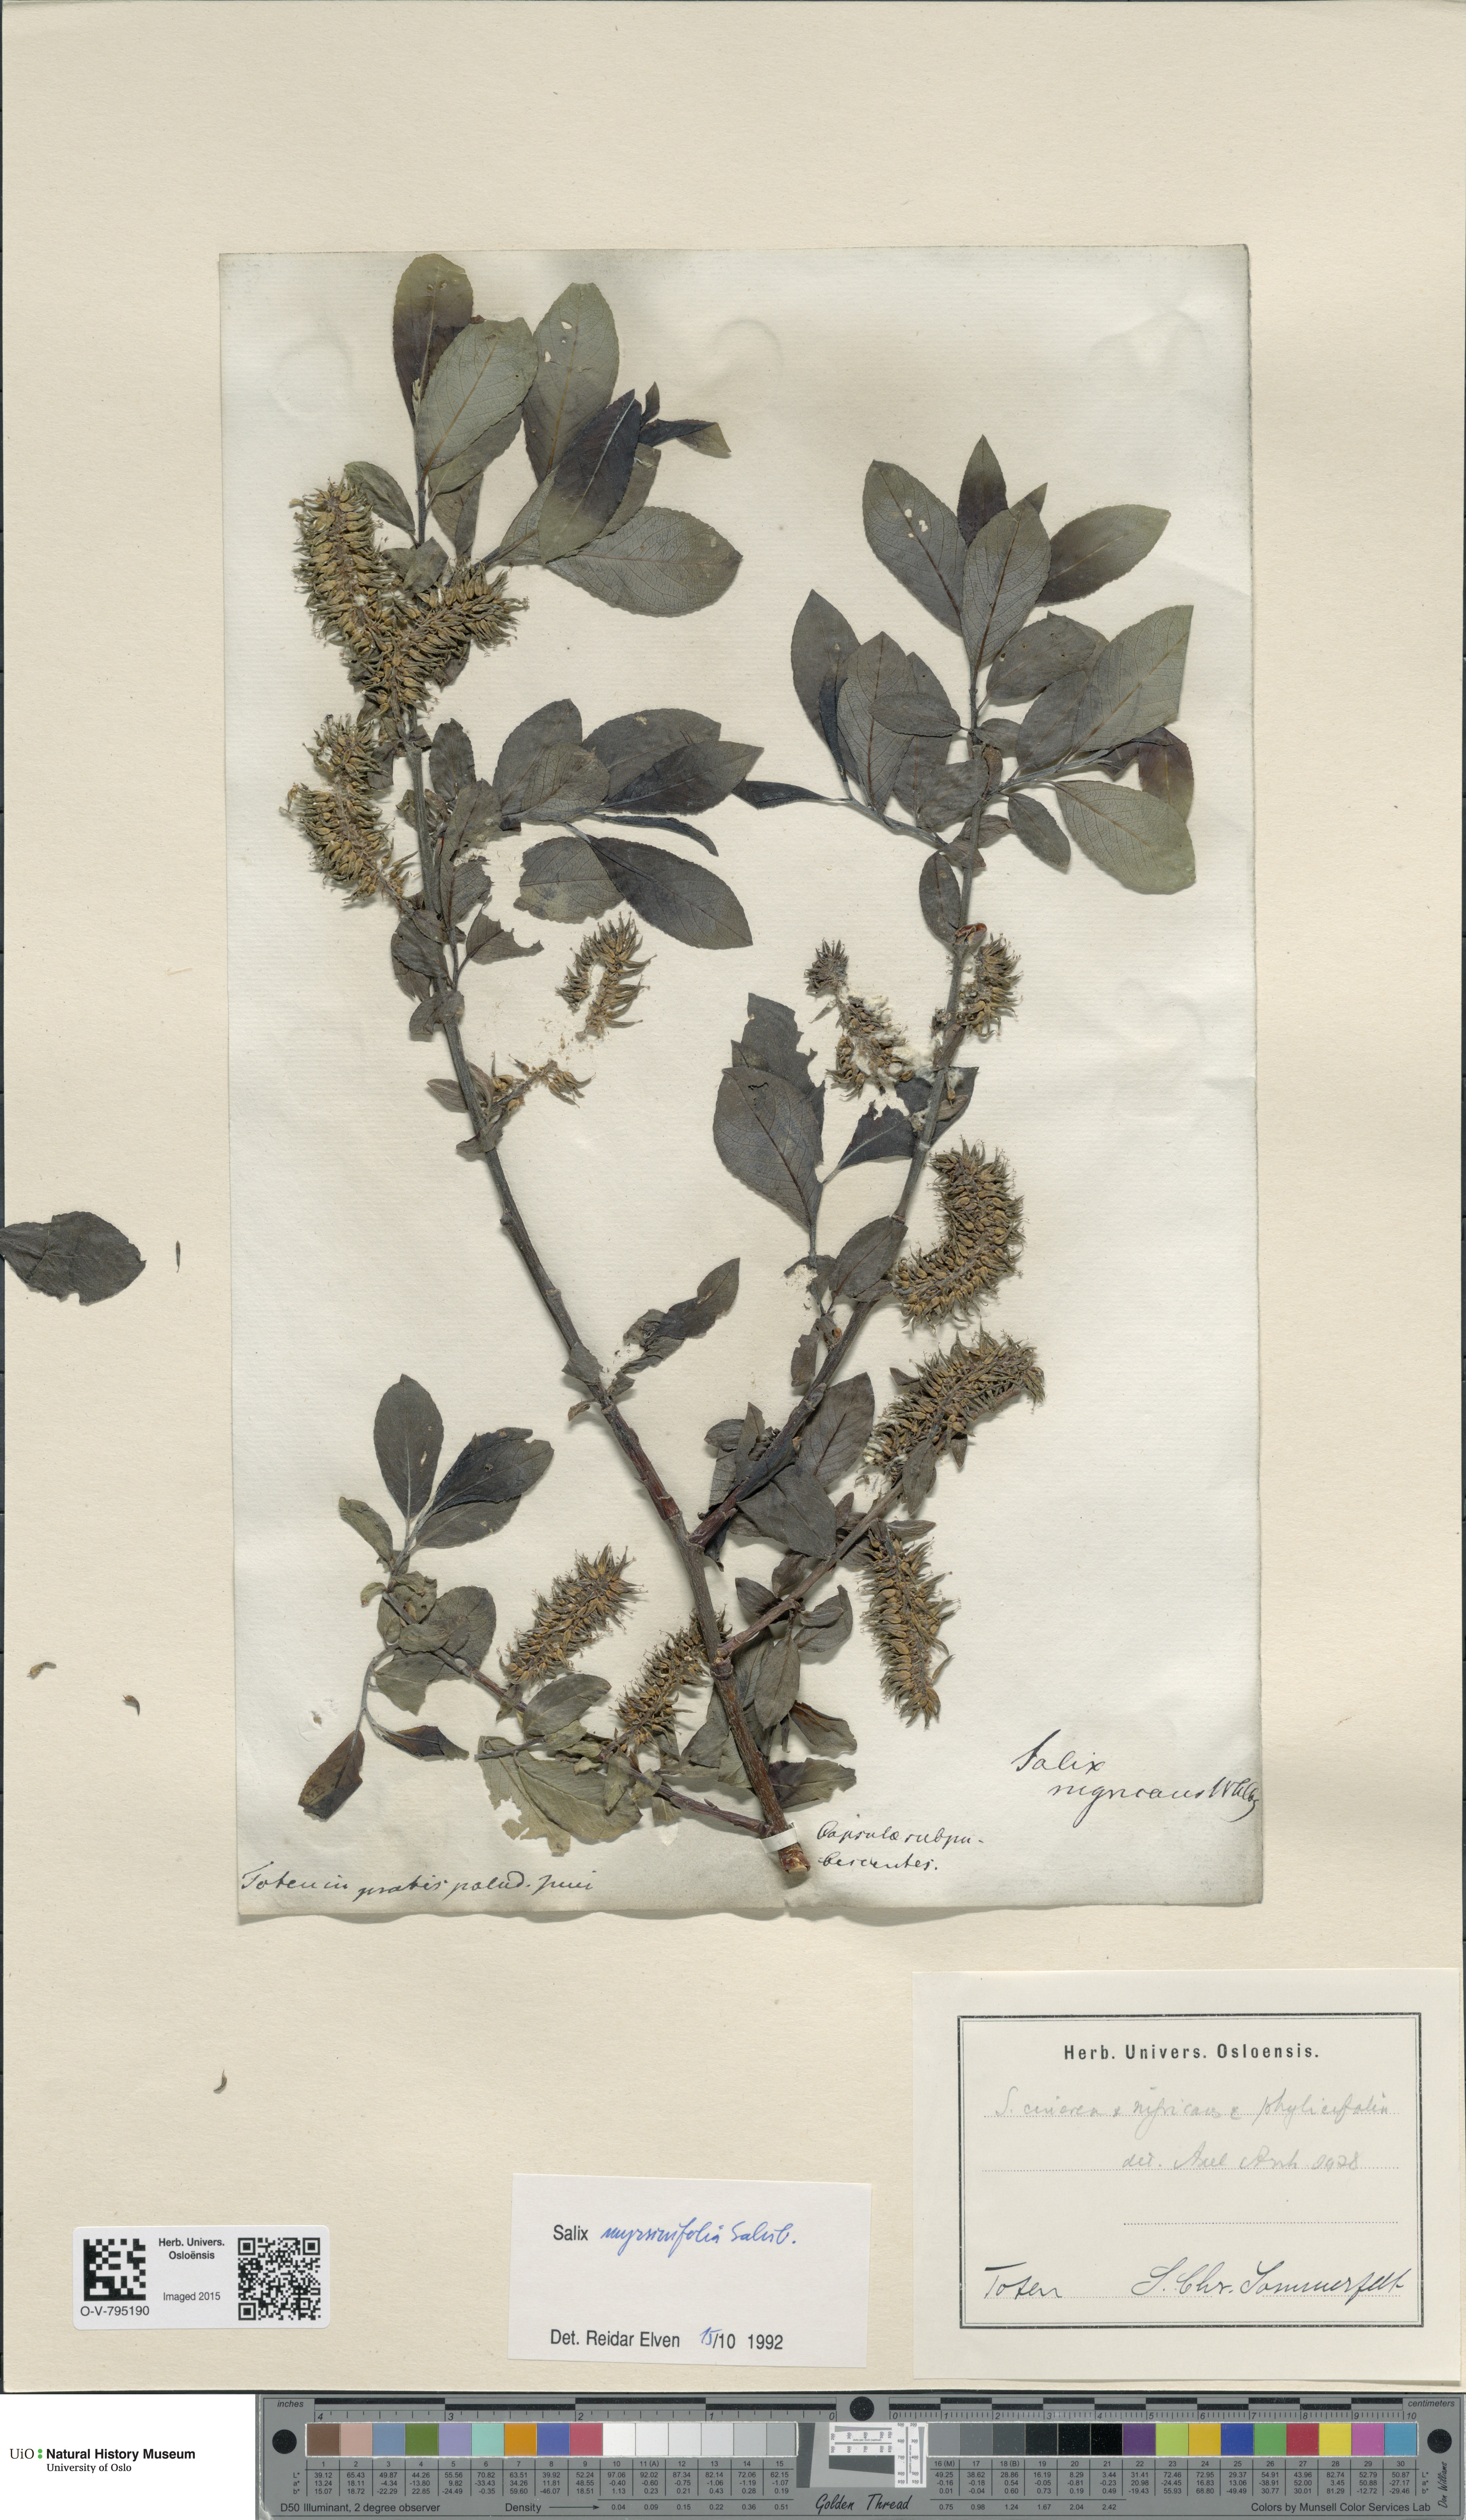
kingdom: Plantae
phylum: Tracheophyta
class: Magnoliopsida
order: Malpighiales
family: Salicaceae
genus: Salix
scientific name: Salix myrsinifolia
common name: Dark-leaved willow
